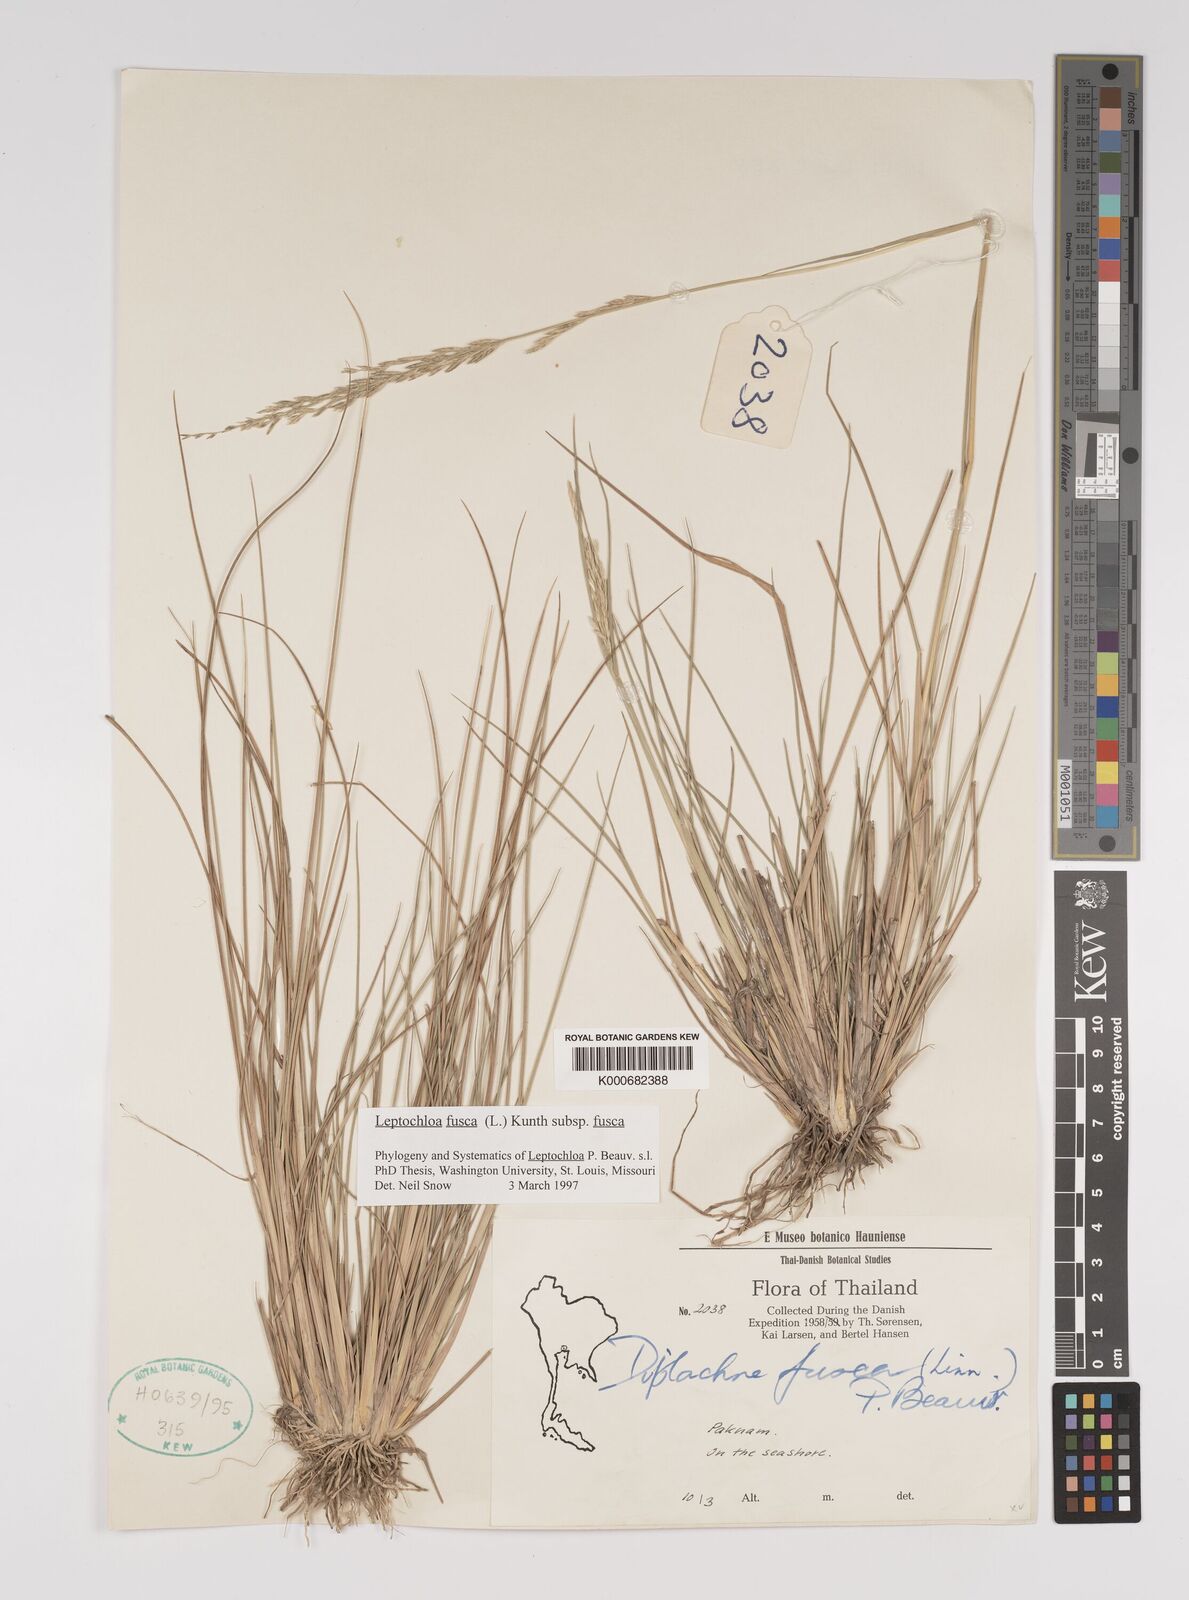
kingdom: Plantae
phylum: Tracheophyta
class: Liliopsida
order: Poales
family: Poaceae
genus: Diplachne
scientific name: Diplachne fusca
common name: Brown beetle grass
